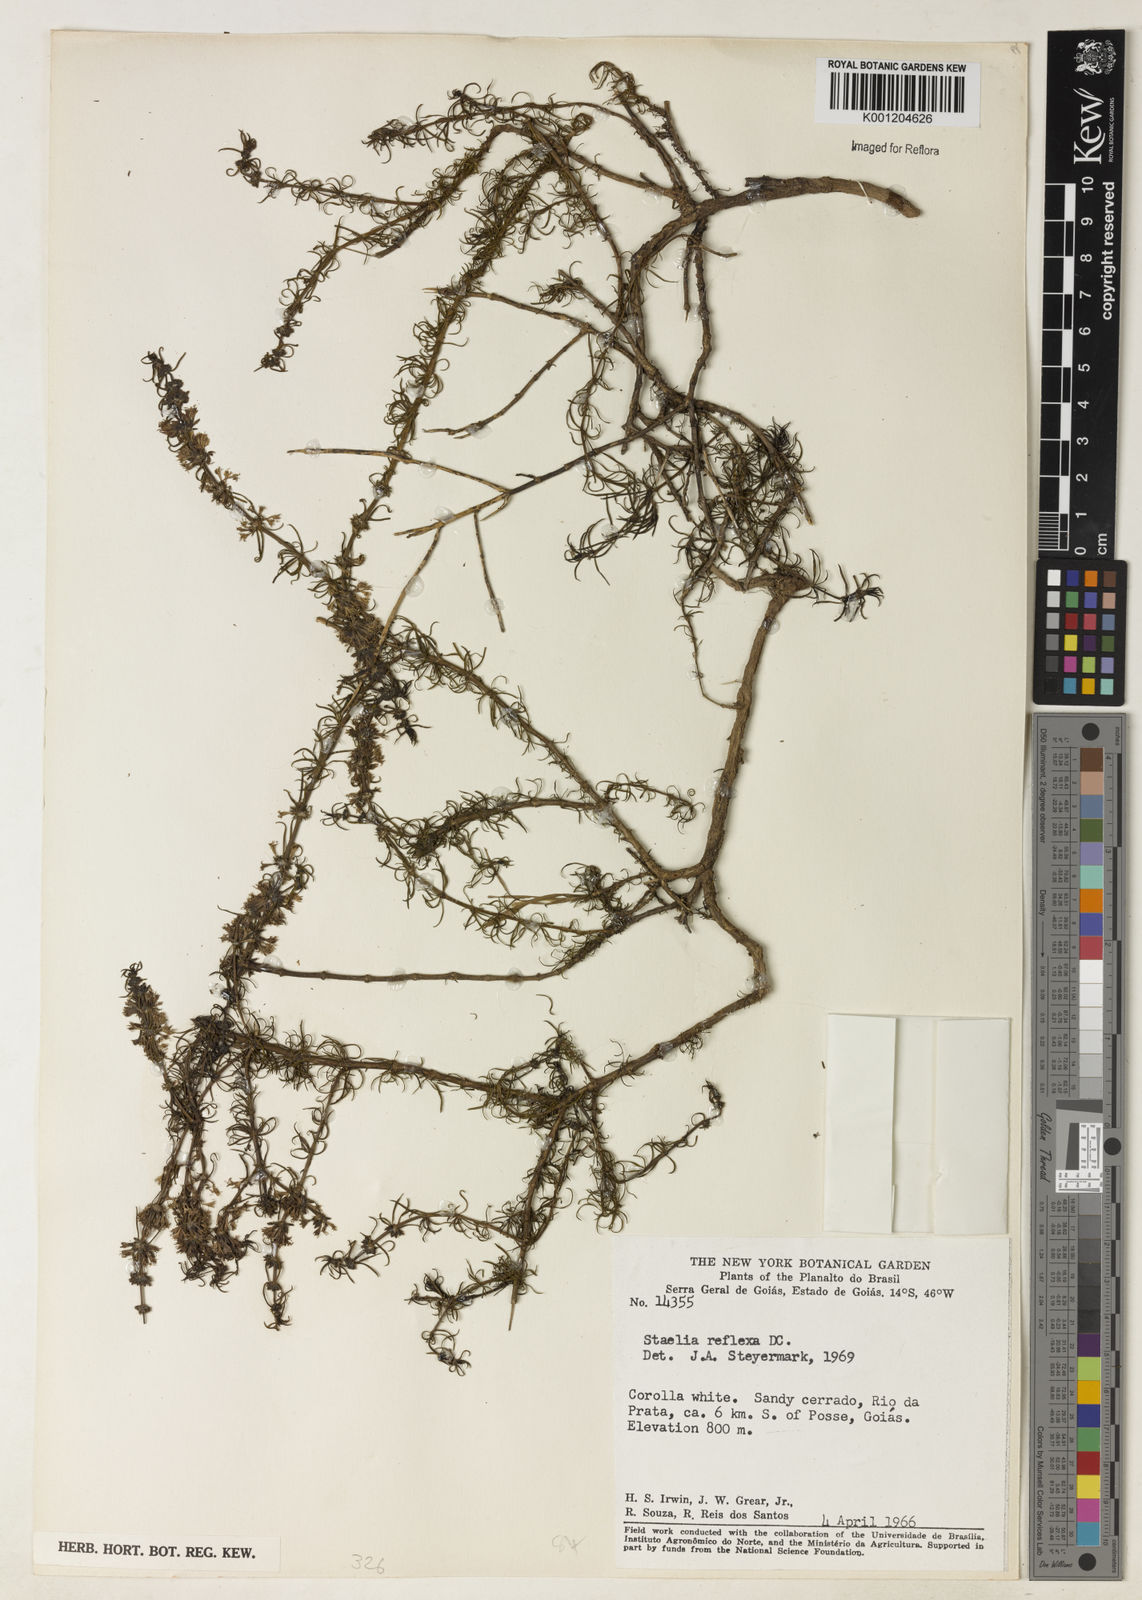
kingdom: Plantae
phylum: Tracheophyta
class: Magnoliopsida
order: Gentianales
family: Rubiaceae
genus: Staelia
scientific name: Staelia reflexa
